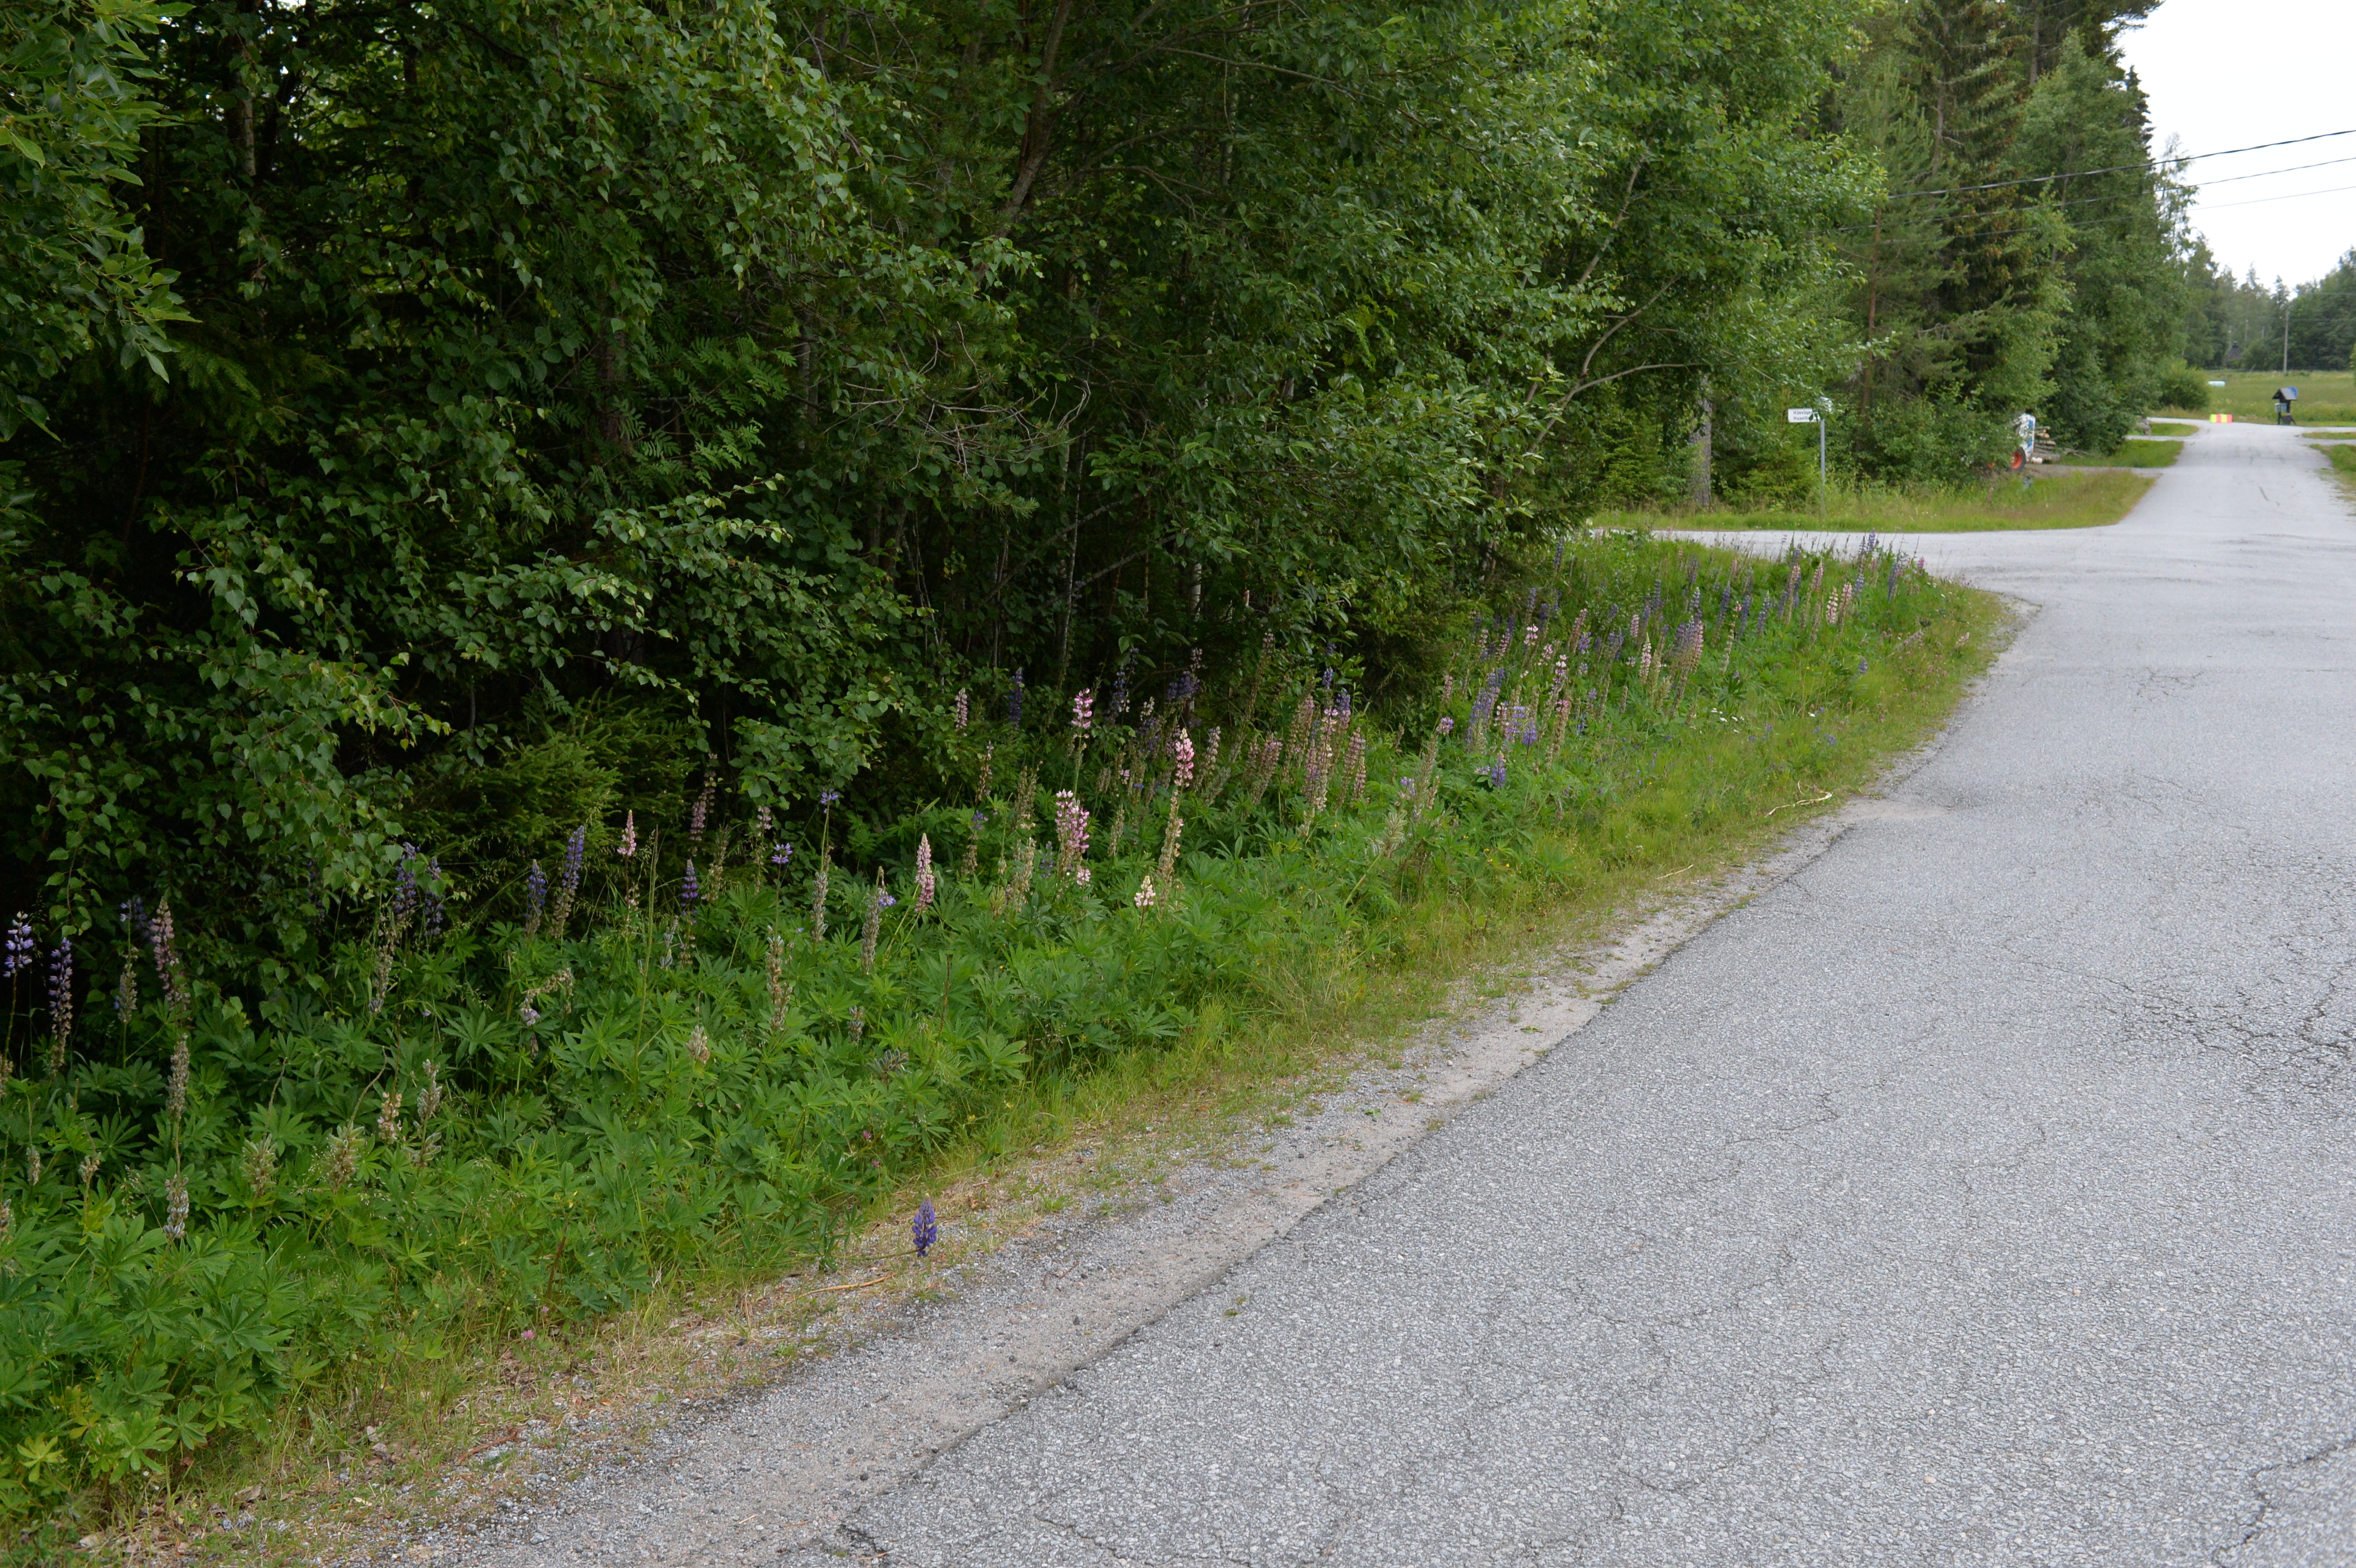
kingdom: Plantae
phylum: Tracheophyta
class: Magnoliopsida
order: Fabales
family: Fabaceae
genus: Lupinus
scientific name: Lupinus polyphyllus
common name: Garden lupin
